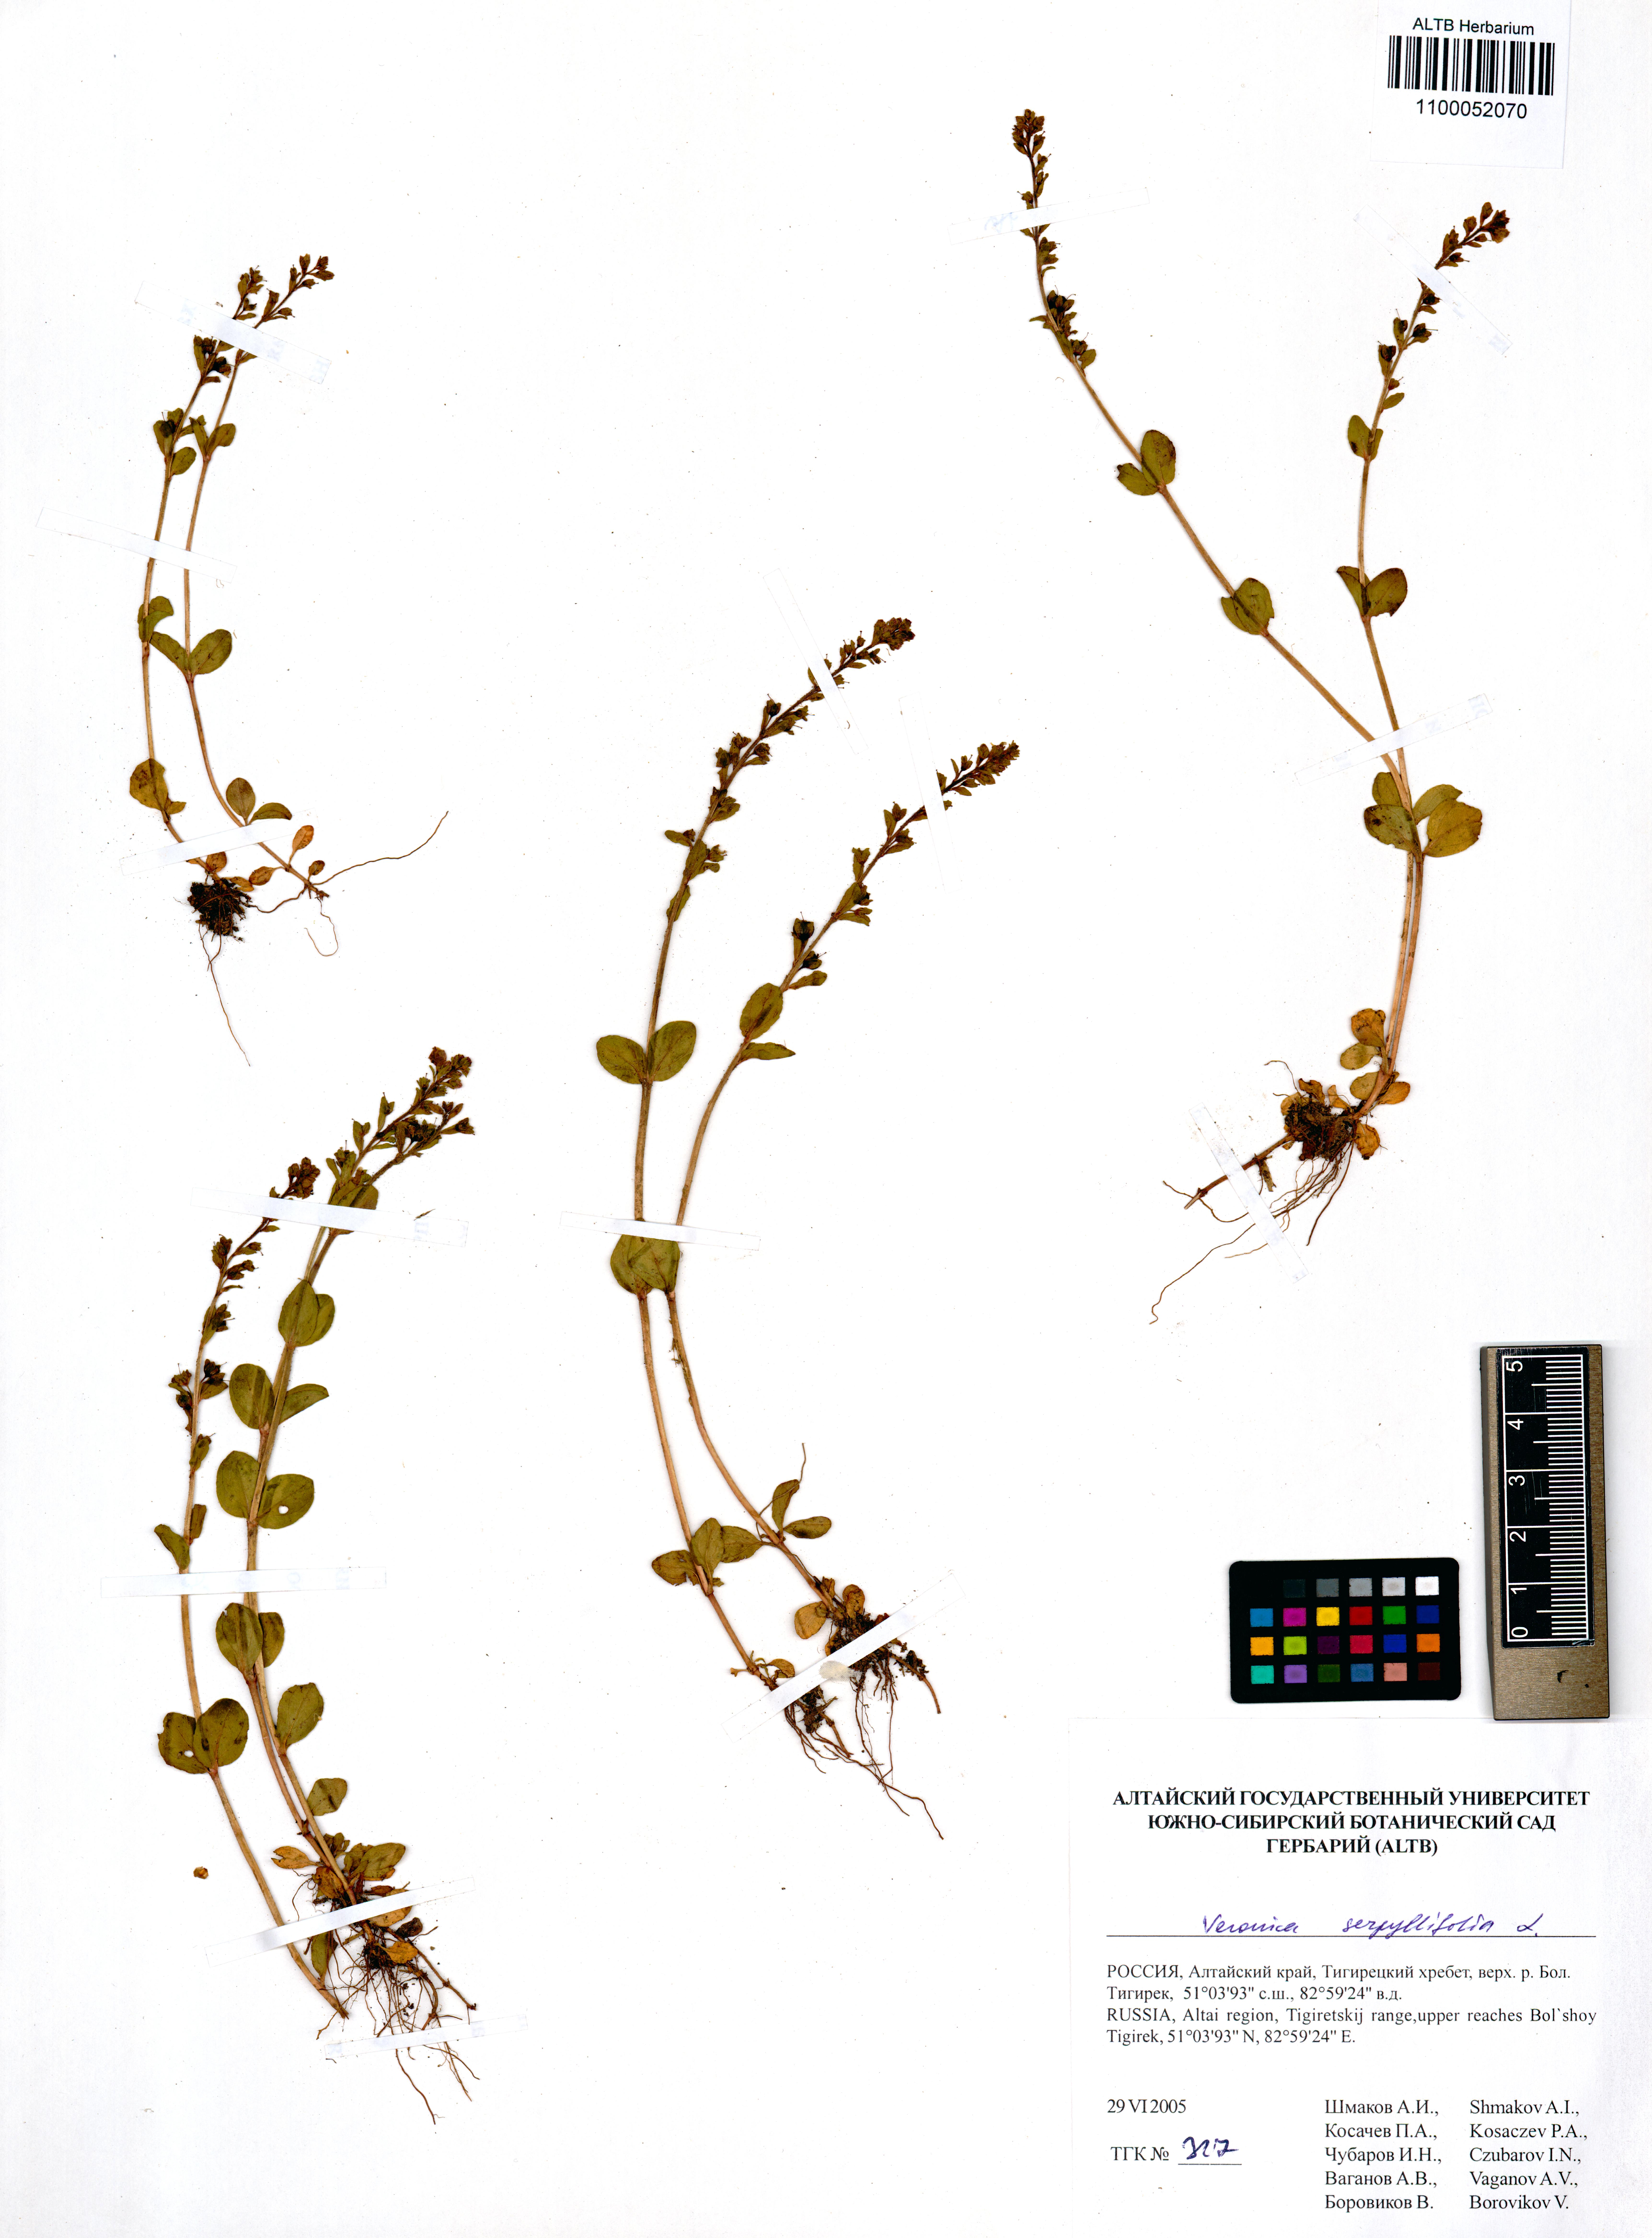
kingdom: Plantae
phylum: Tracheophyta
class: Magnoliopsida
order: Lamiales
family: Plantaginaceae
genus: Veronica
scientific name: Veronica serpyllifolia
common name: Thyme-leaved speedwell
